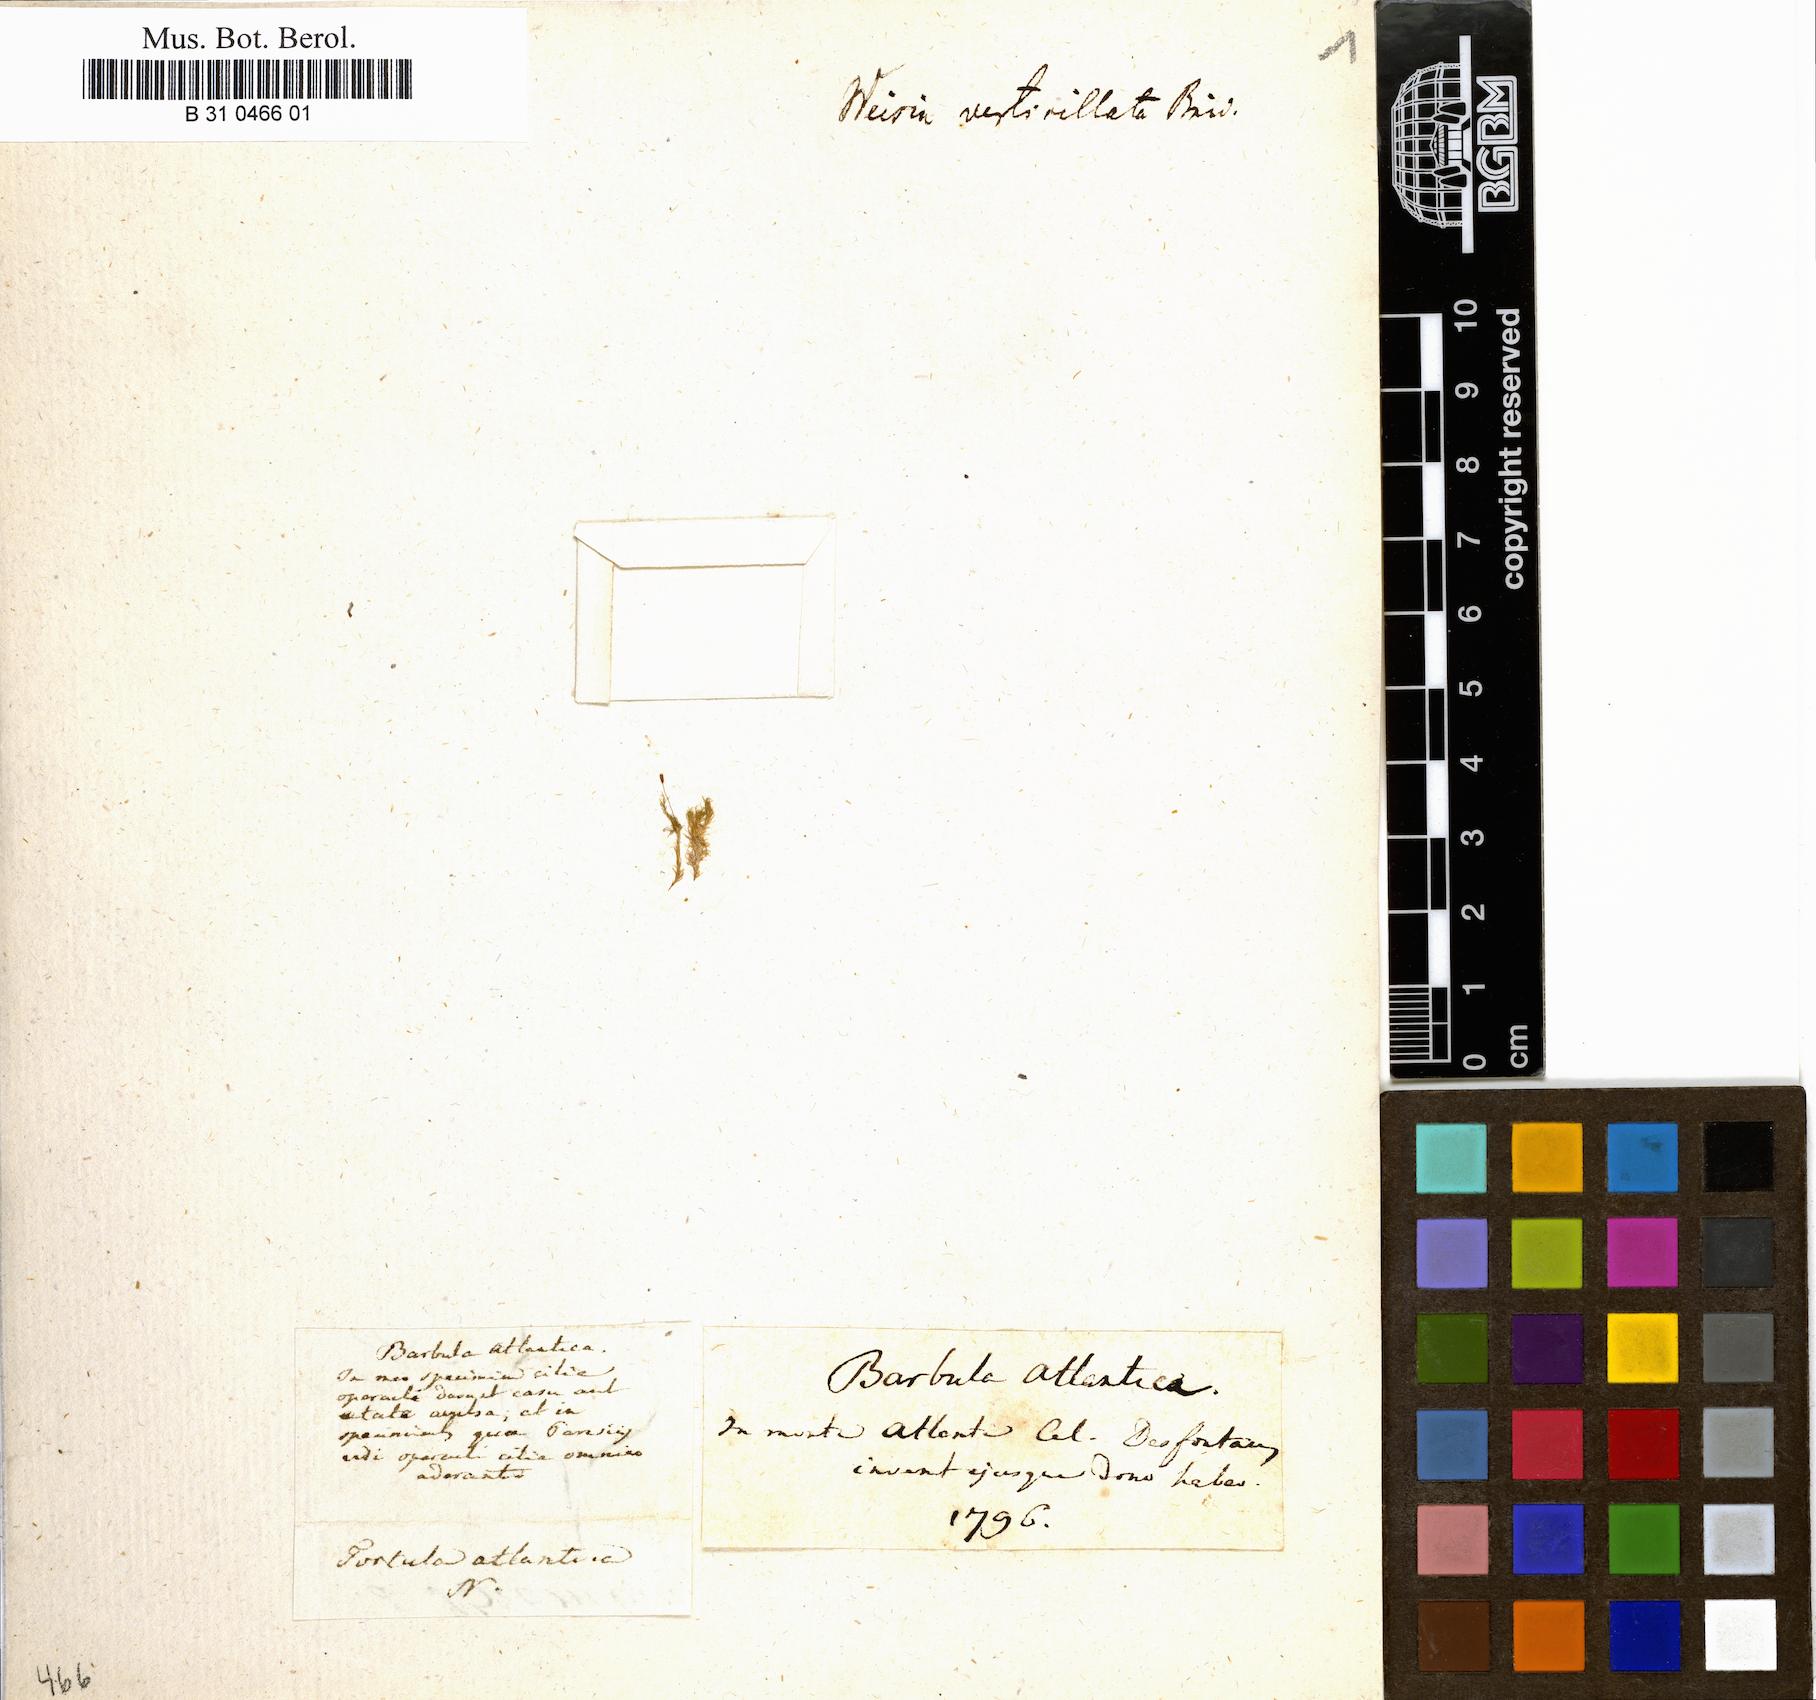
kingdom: Plantae
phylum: Bryophyta
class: Bryopsida
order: Pottiales
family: Pottiaceae
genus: Eucladium
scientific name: Eucladium verticillatum
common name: Whorled tufa-moss
